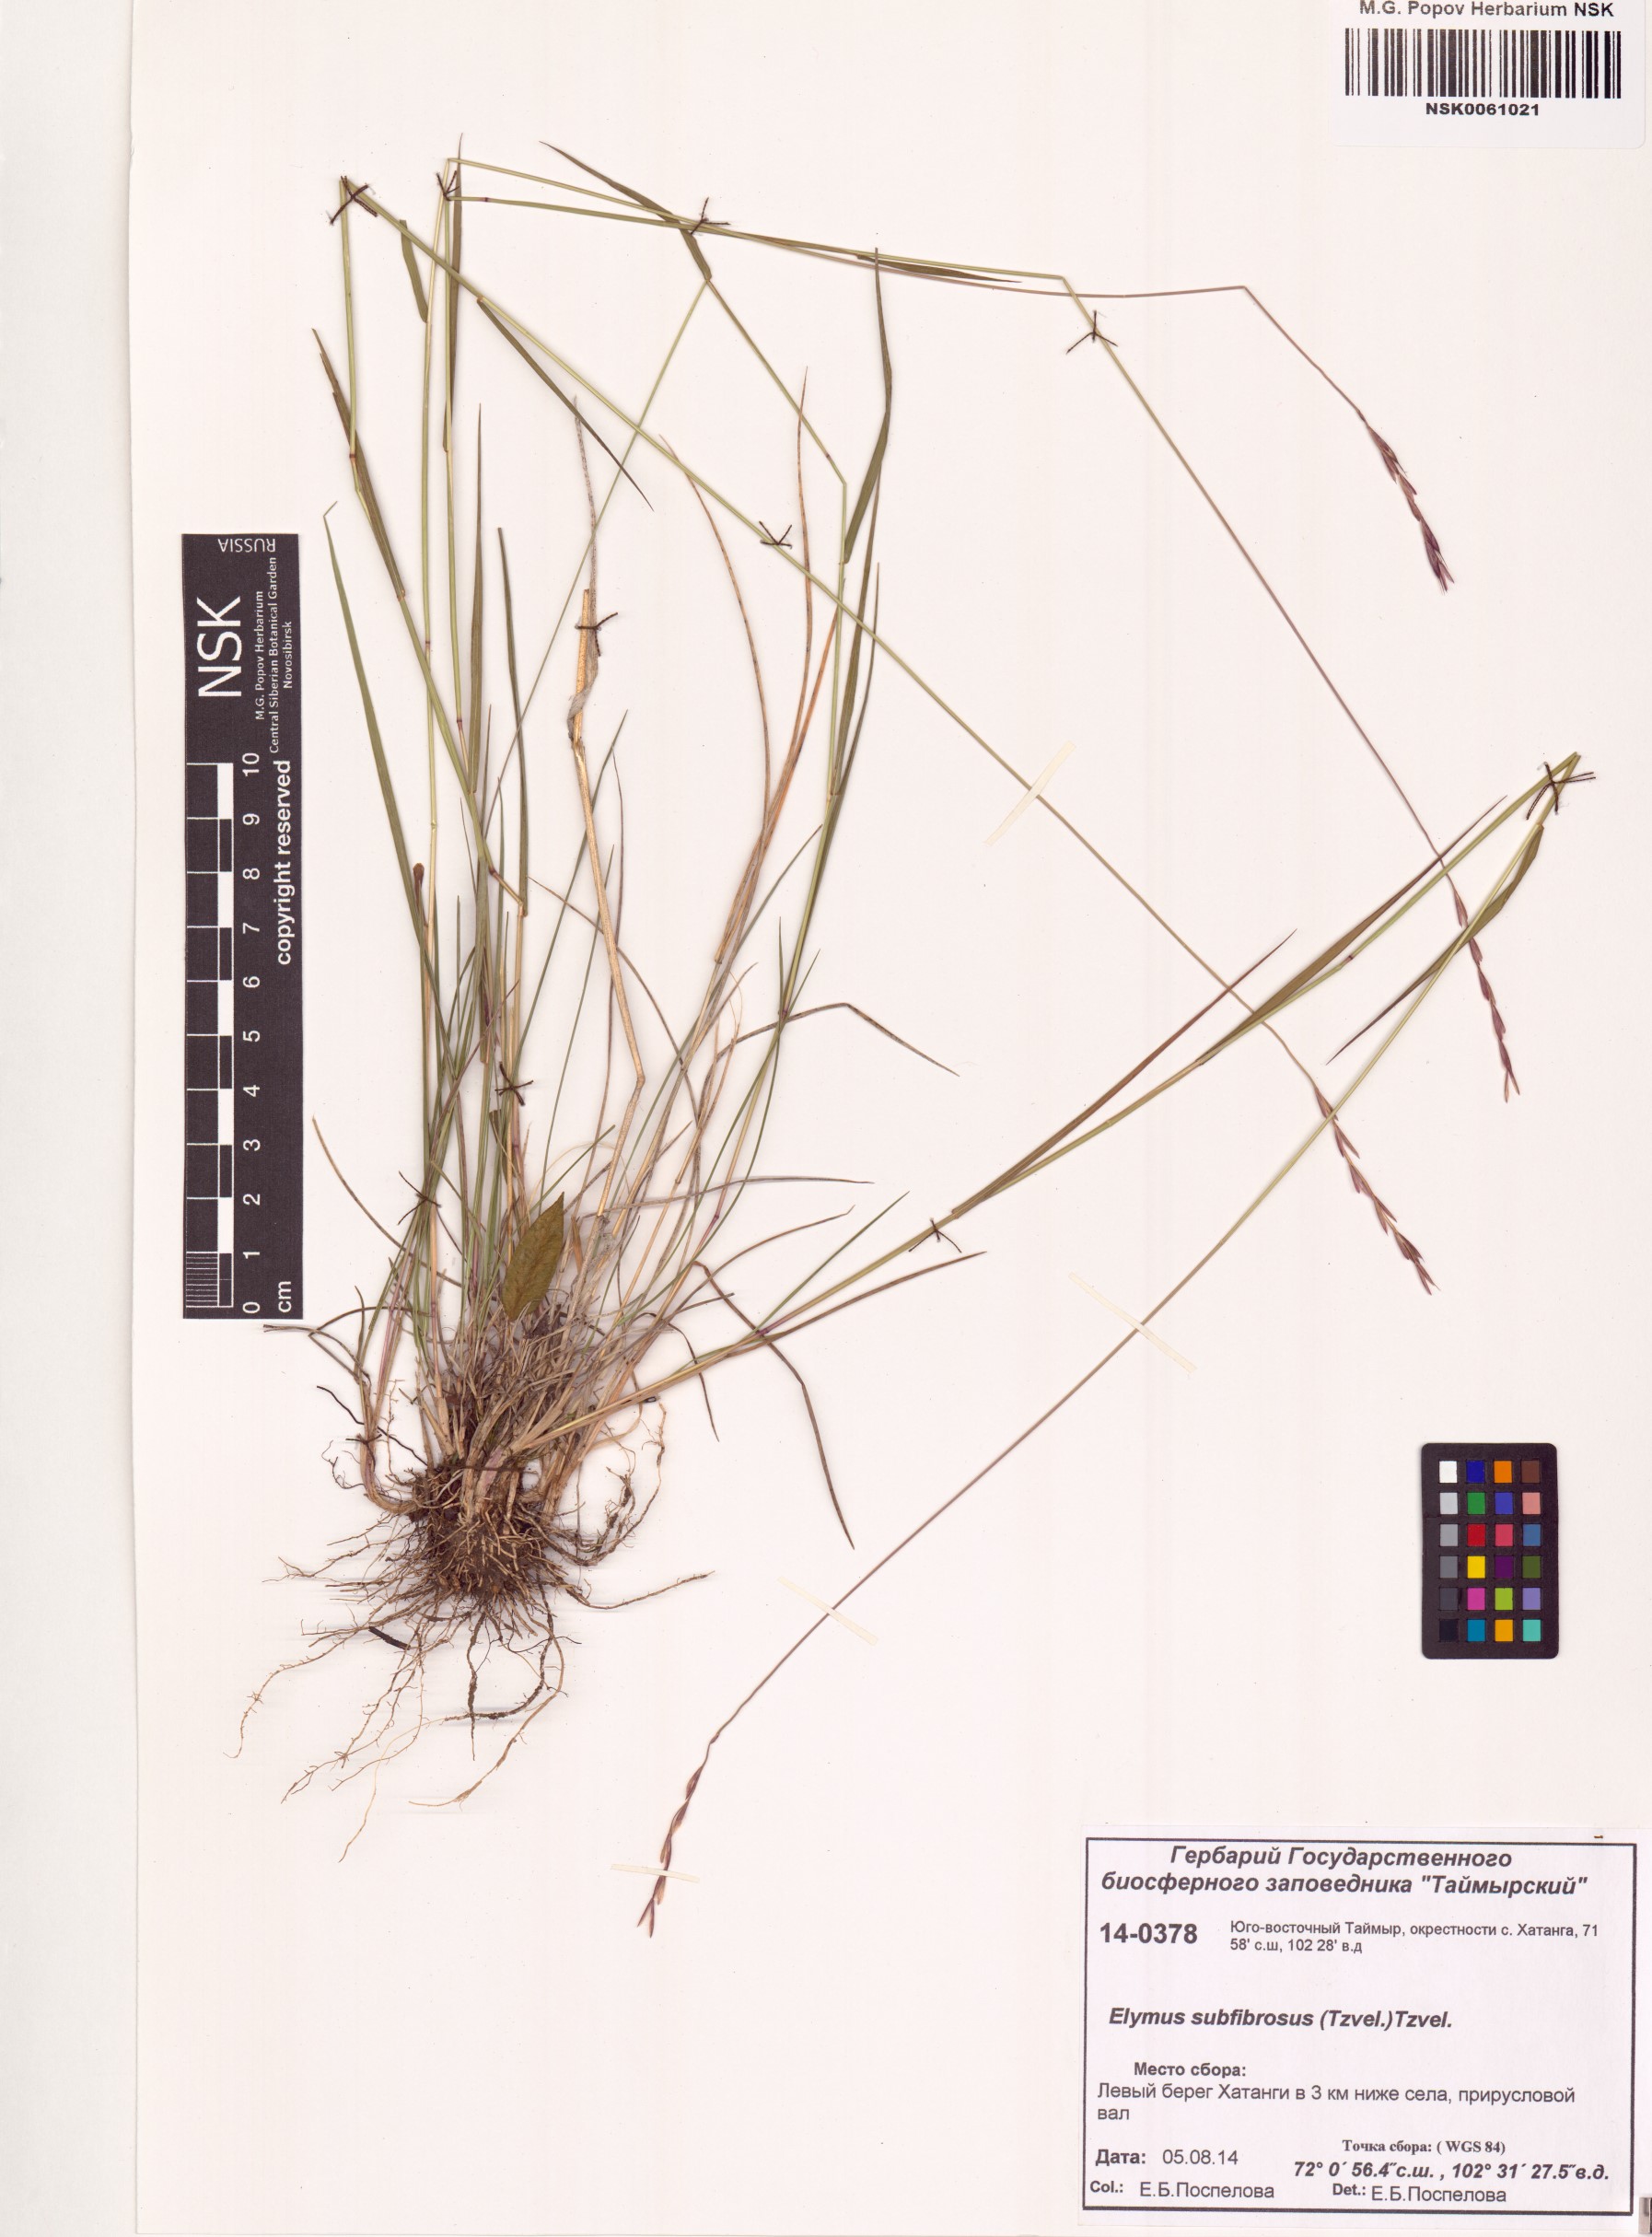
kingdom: Plantae
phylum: Tracheophyta
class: Liliopsida
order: Poales
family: Poaceae
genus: Elymus
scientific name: Elymus fibrosus
